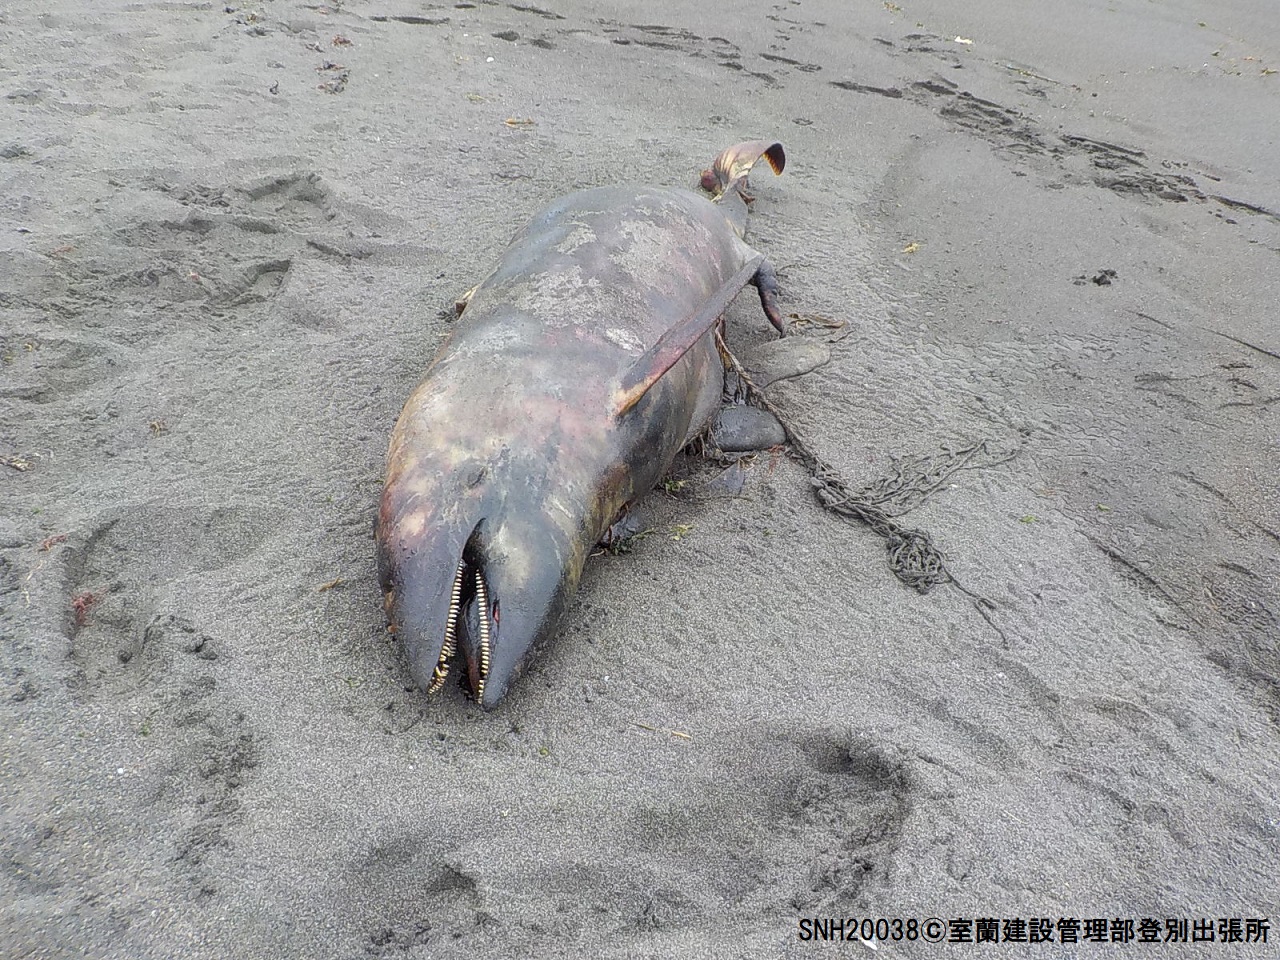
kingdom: Animalia
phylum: Chordata
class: Mammalia
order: Cetacea
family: Delphinidae
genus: Lagenorhynchus
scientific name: Lagenorhynchus obliquidens
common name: Pacific white-sided dolphin
